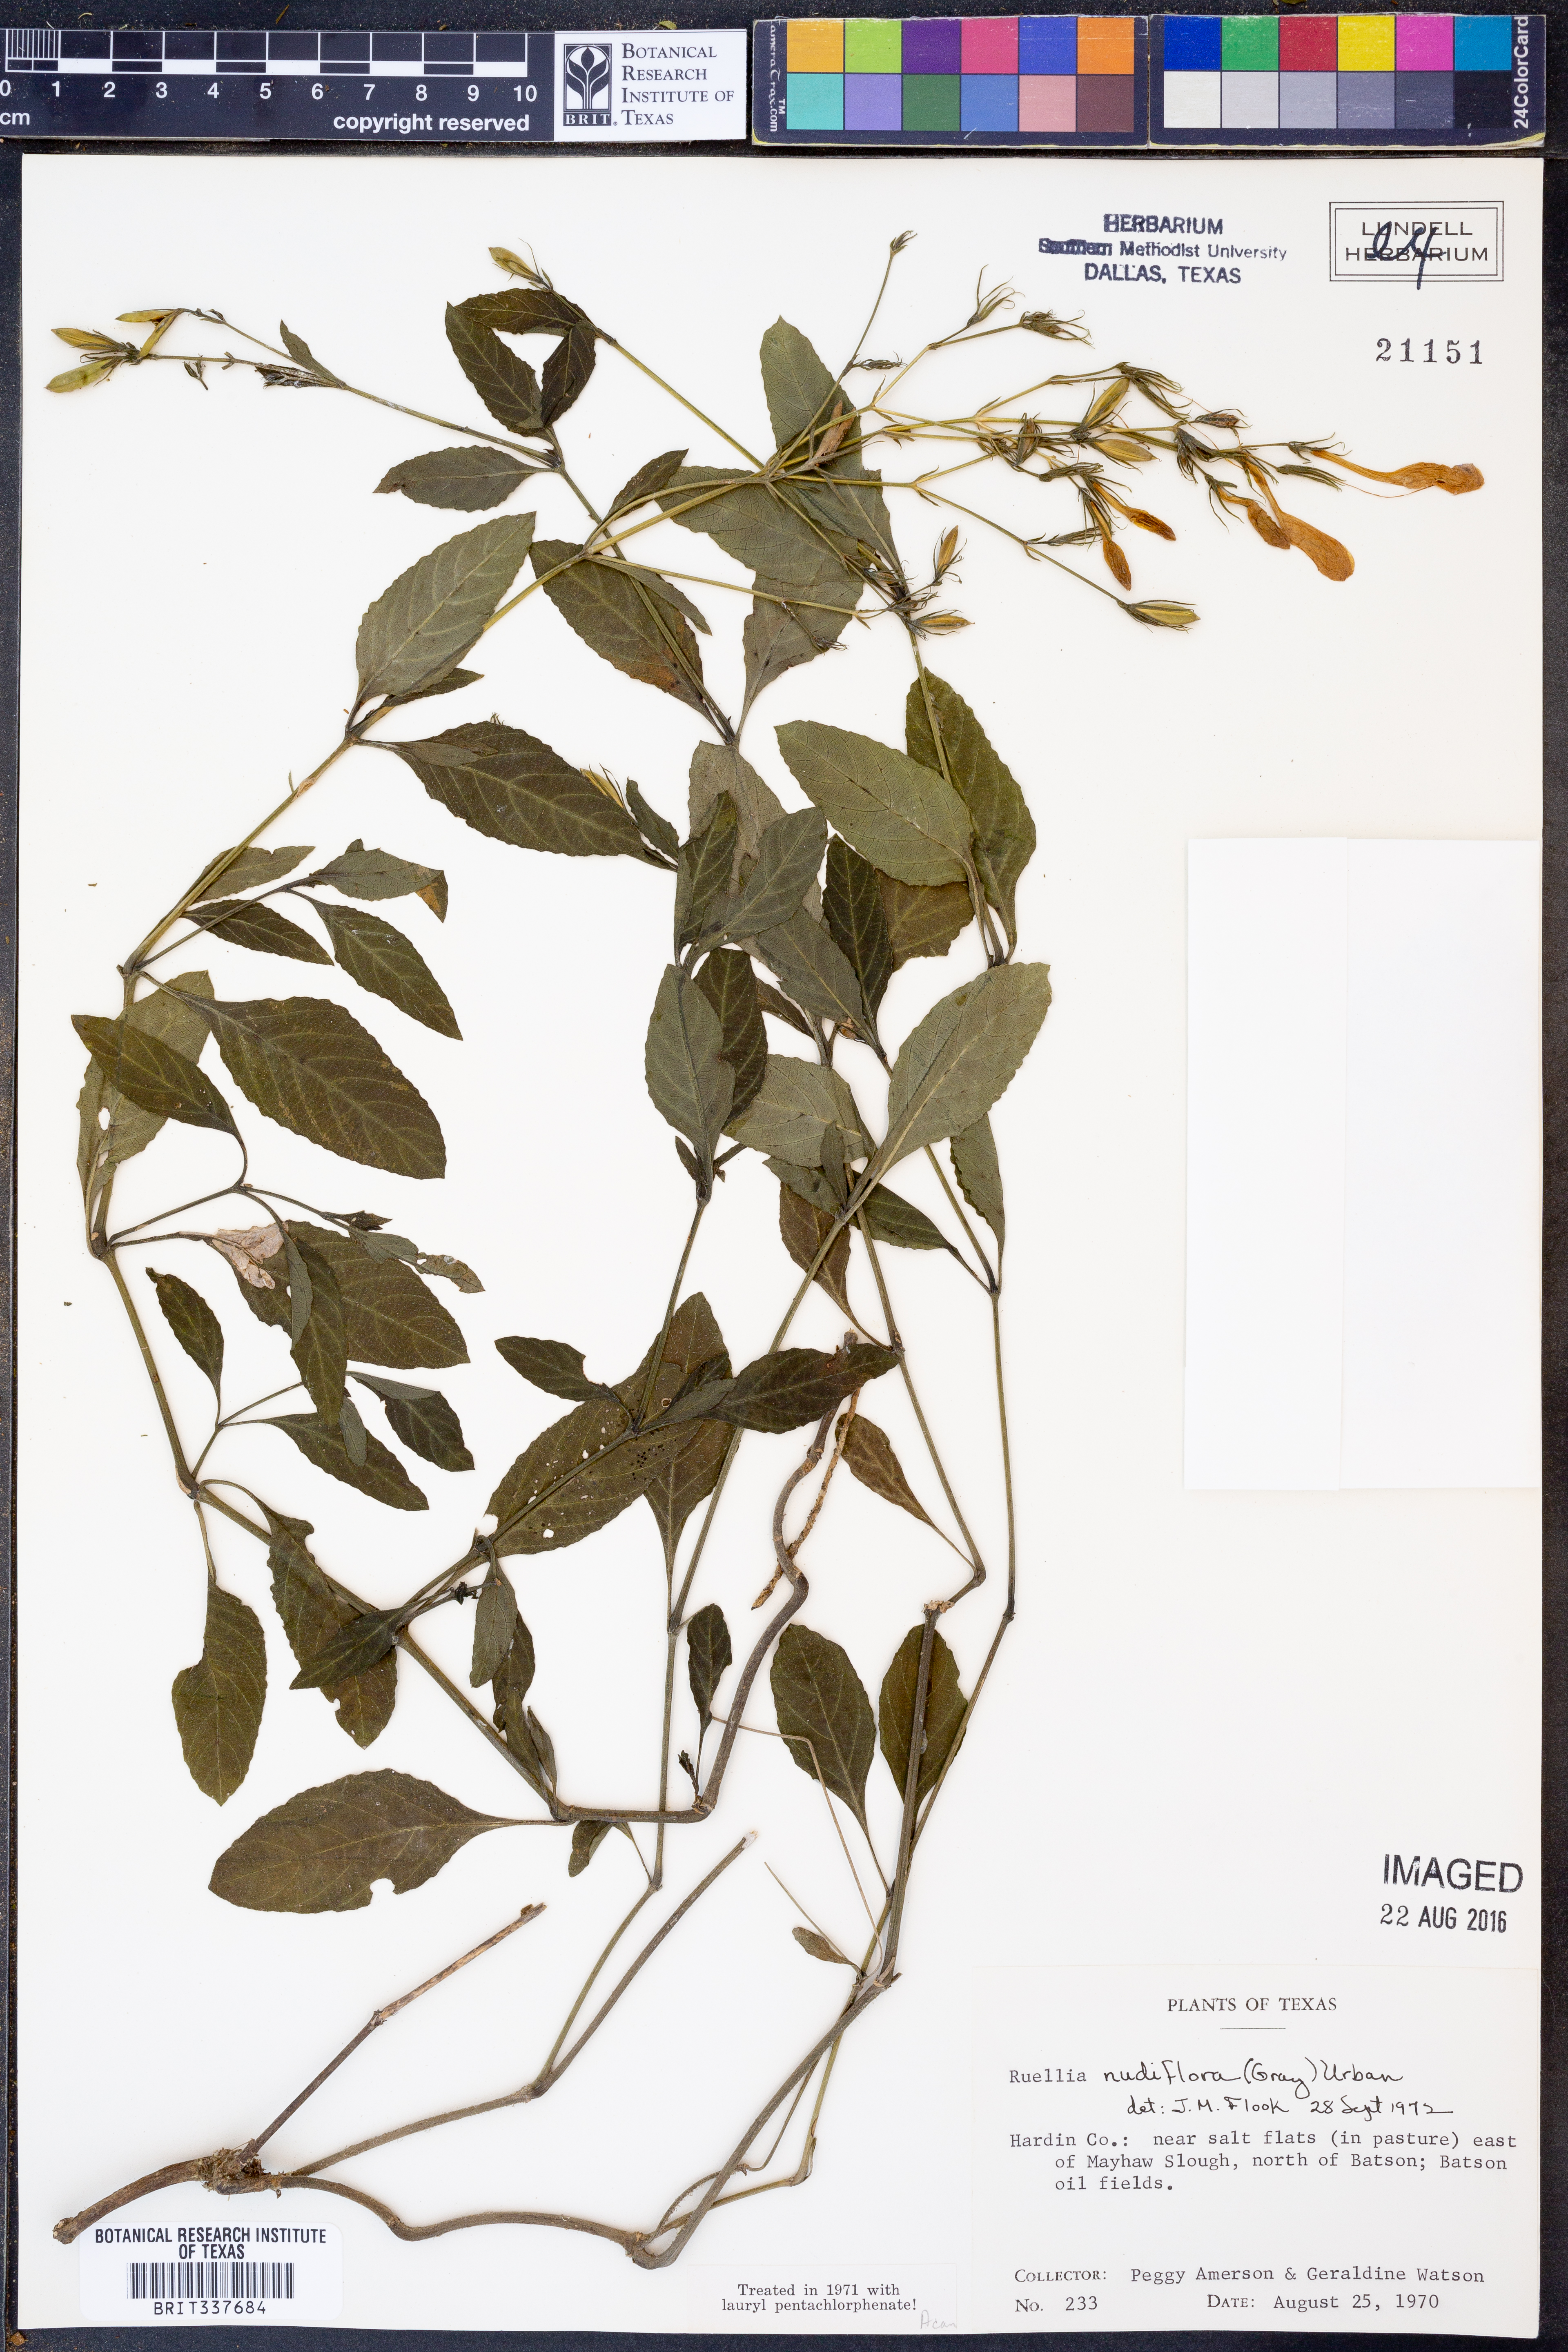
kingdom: Plantae
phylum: Tracheophyta
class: Magnoliopsida
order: Lamiales
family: Acanthaceae
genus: Ruellia
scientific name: Ruellia ciliatiflora
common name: Hairyflower wild petunia
